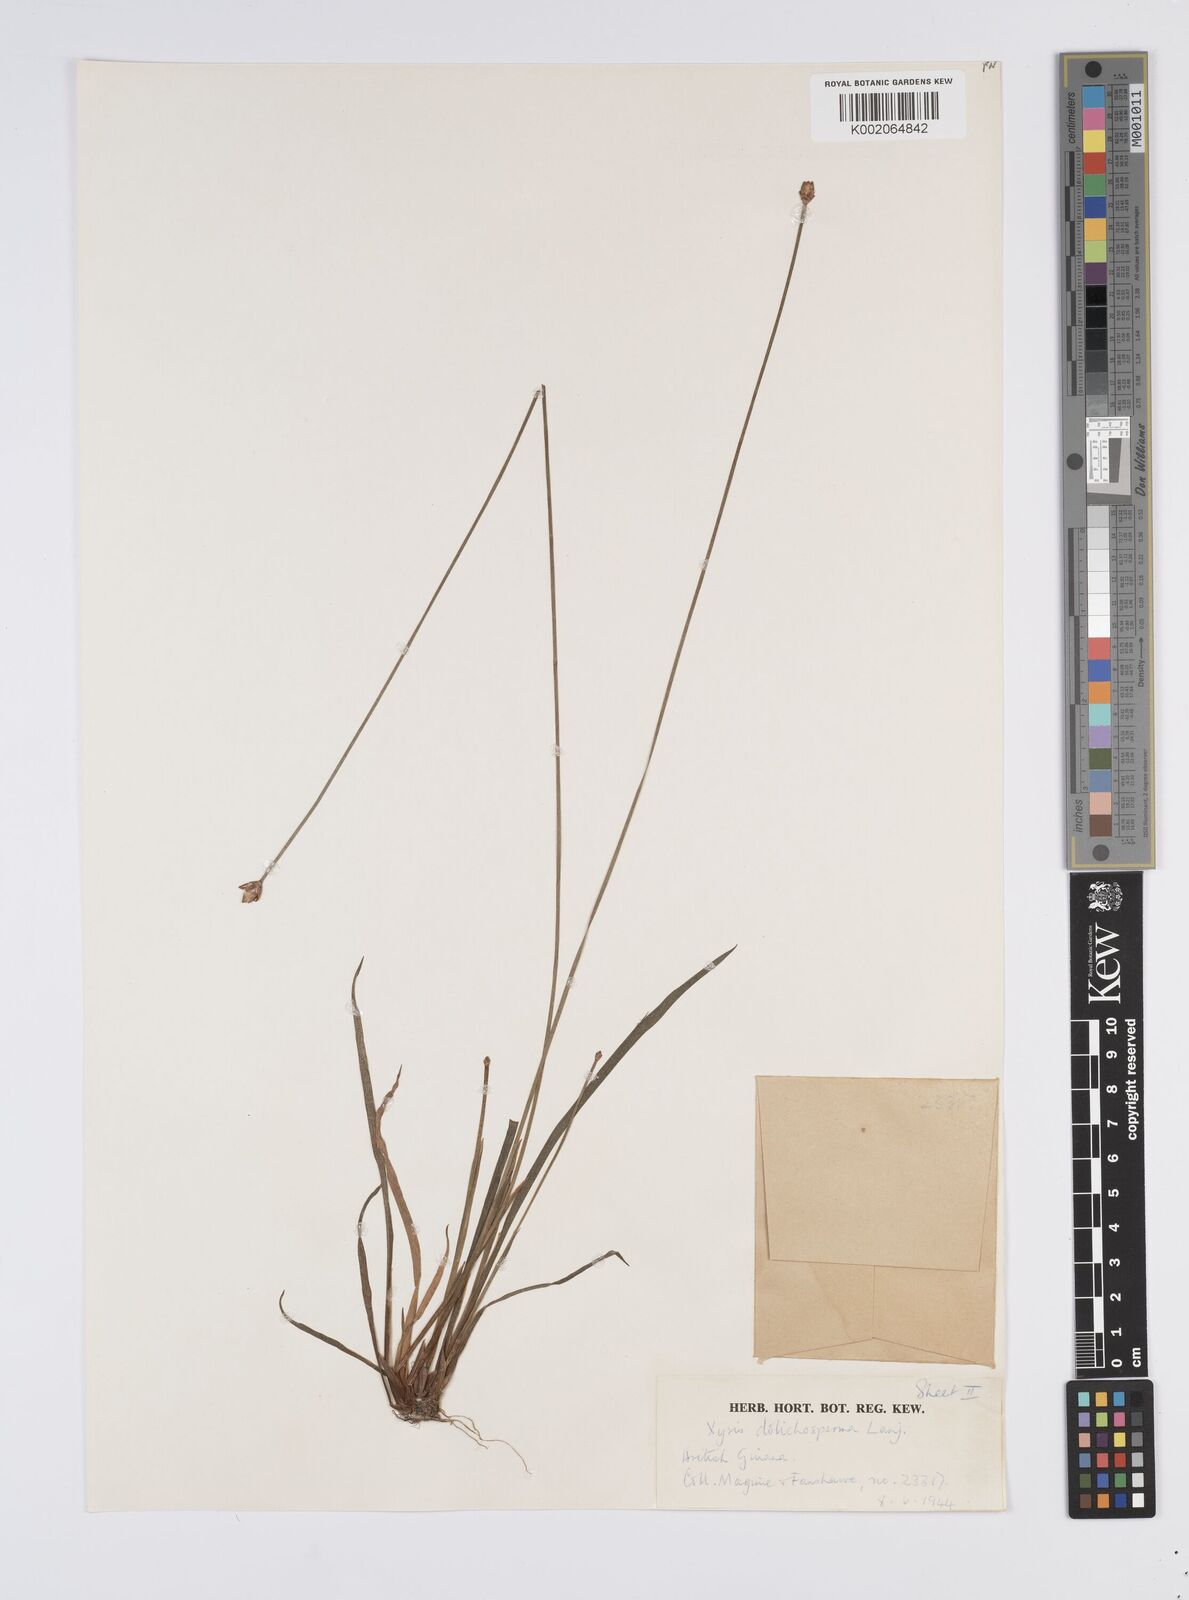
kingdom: Plantae
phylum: Tracheophyta
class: Liliopsida
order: Poales
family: Xyridaceae
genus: Xyris
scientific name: Xyris fallax
